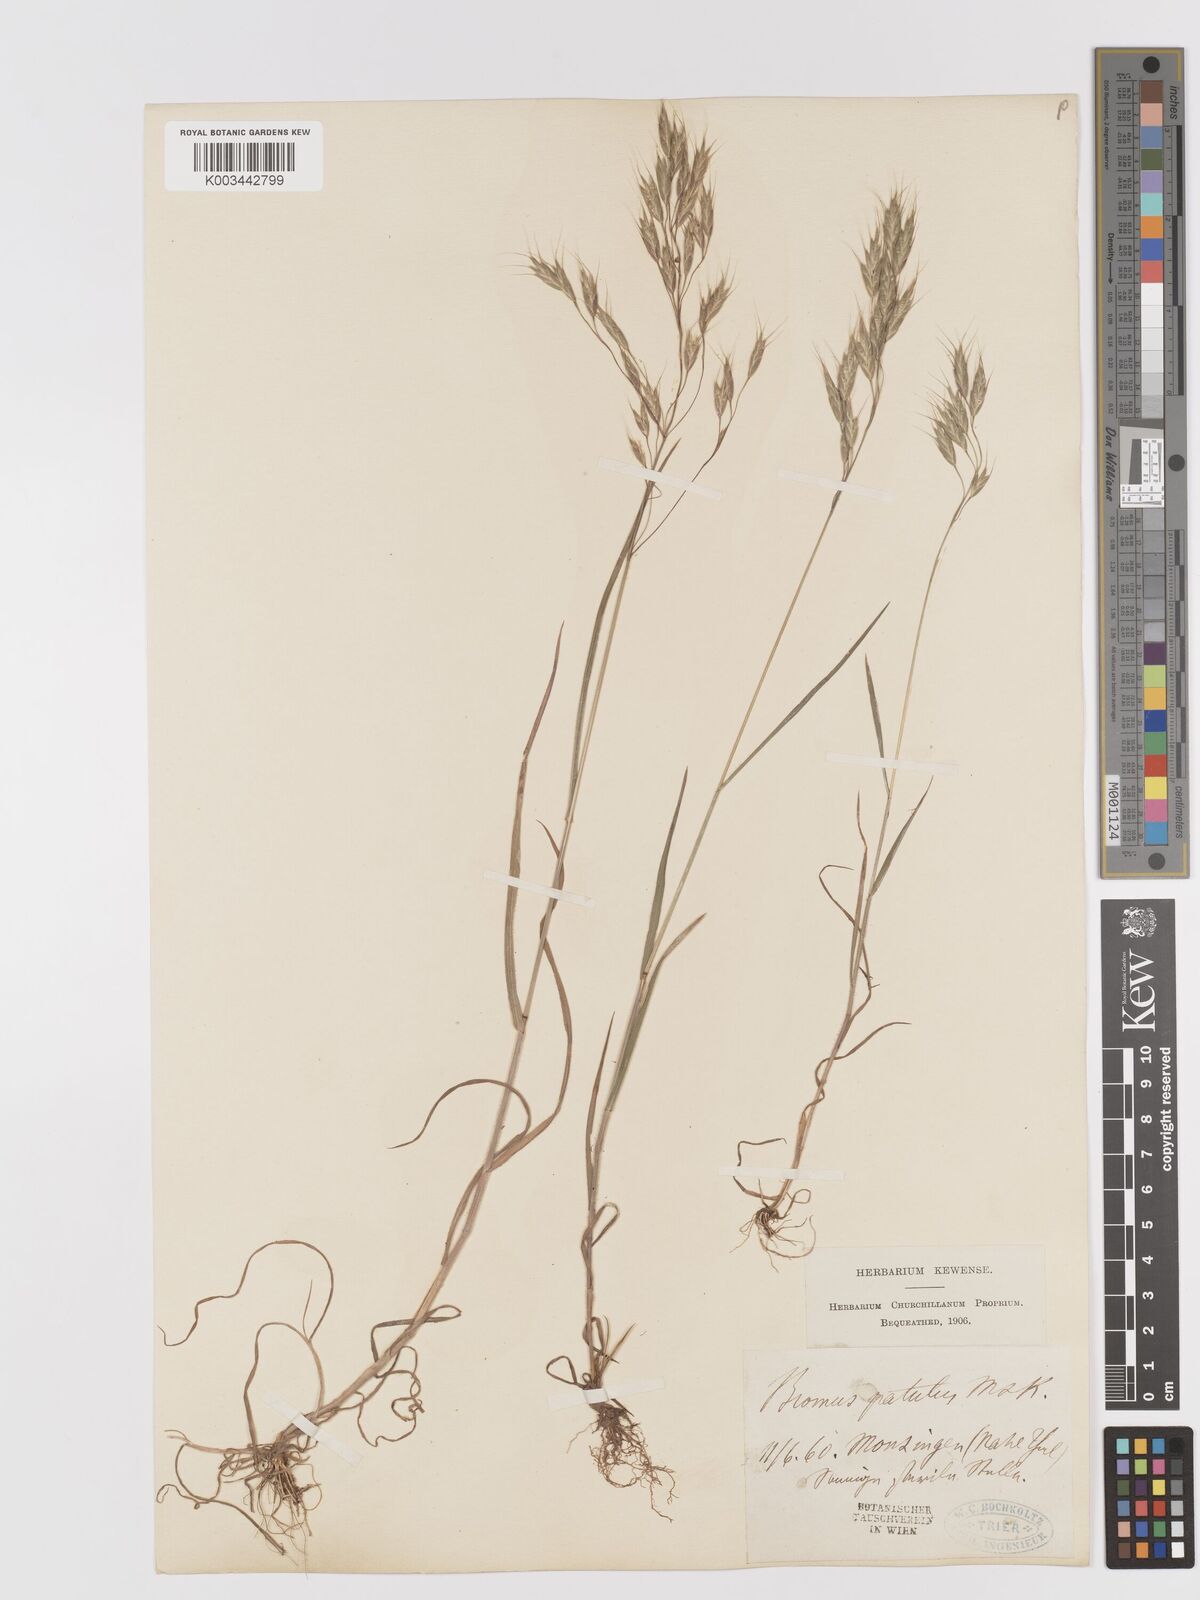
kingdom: Plantae
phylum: Tracheophyta
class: Liliopsida
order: Poales
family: Poaceae
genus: Bromus
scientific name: Bromus japonicus
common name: Japanese brome
